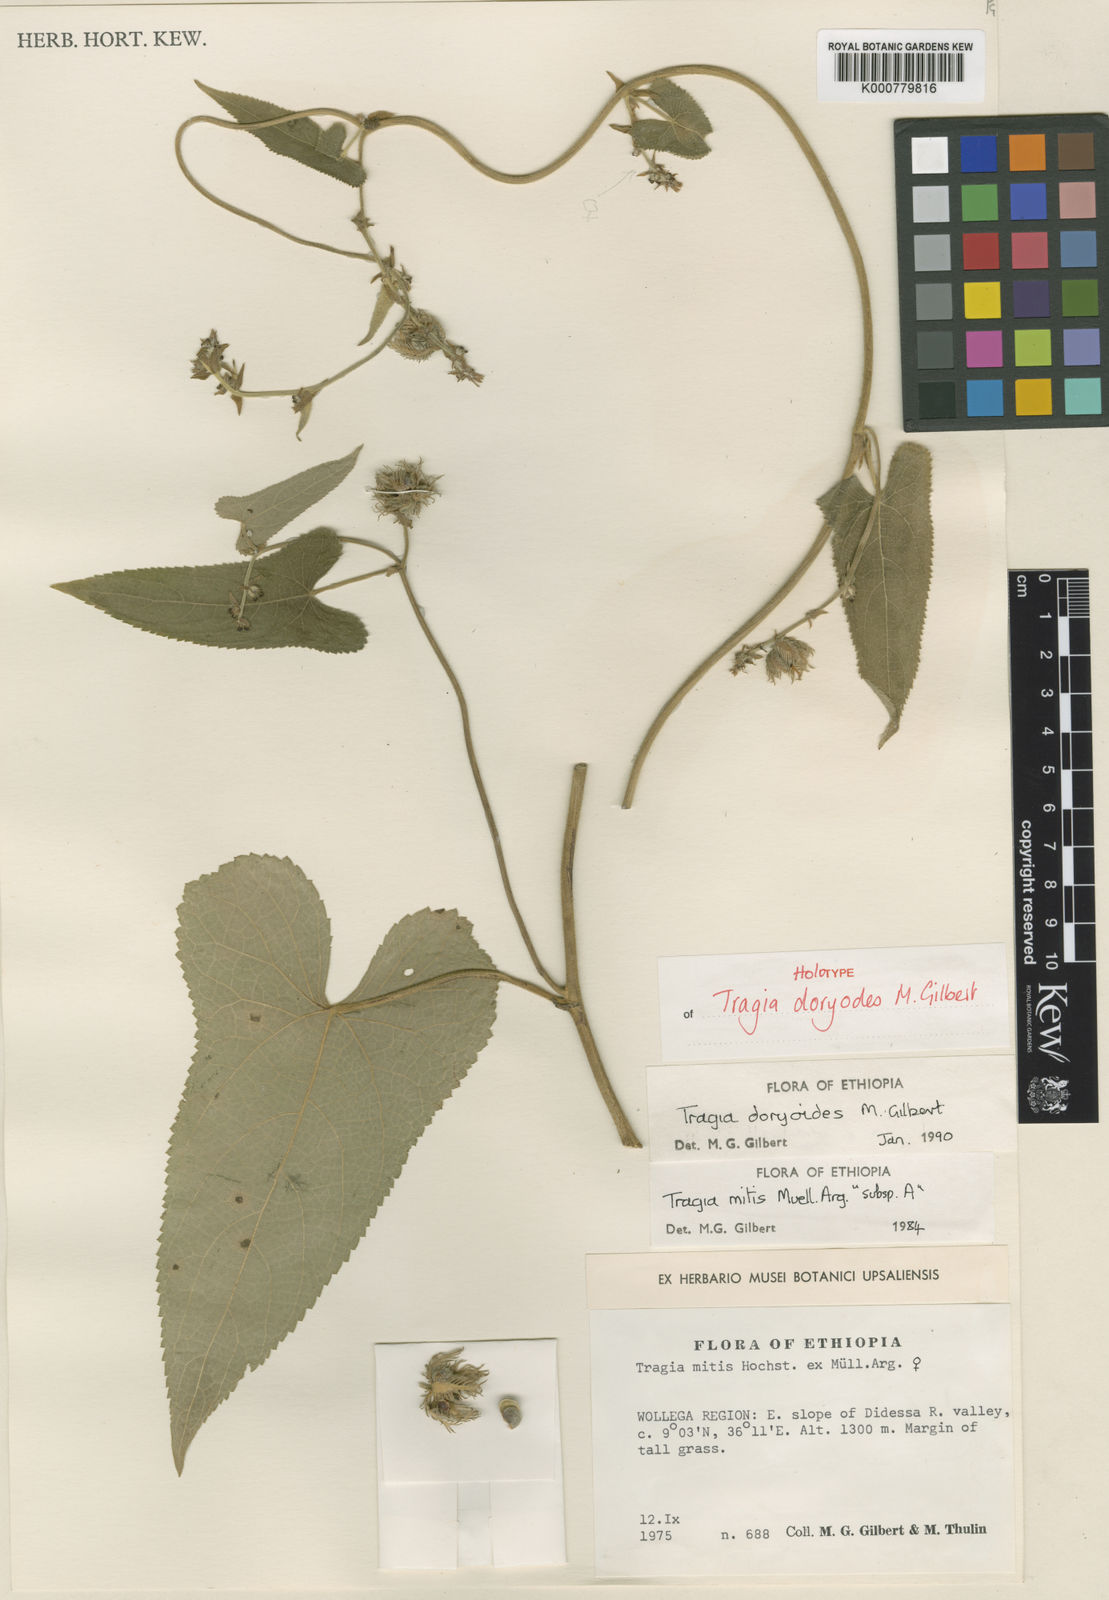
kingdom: Plantae
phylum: Tracheophyta
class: Magnoliopsida
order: Malpighiales
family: Euphorbiaceae
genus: Tragia
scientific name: Tragia doryodes
